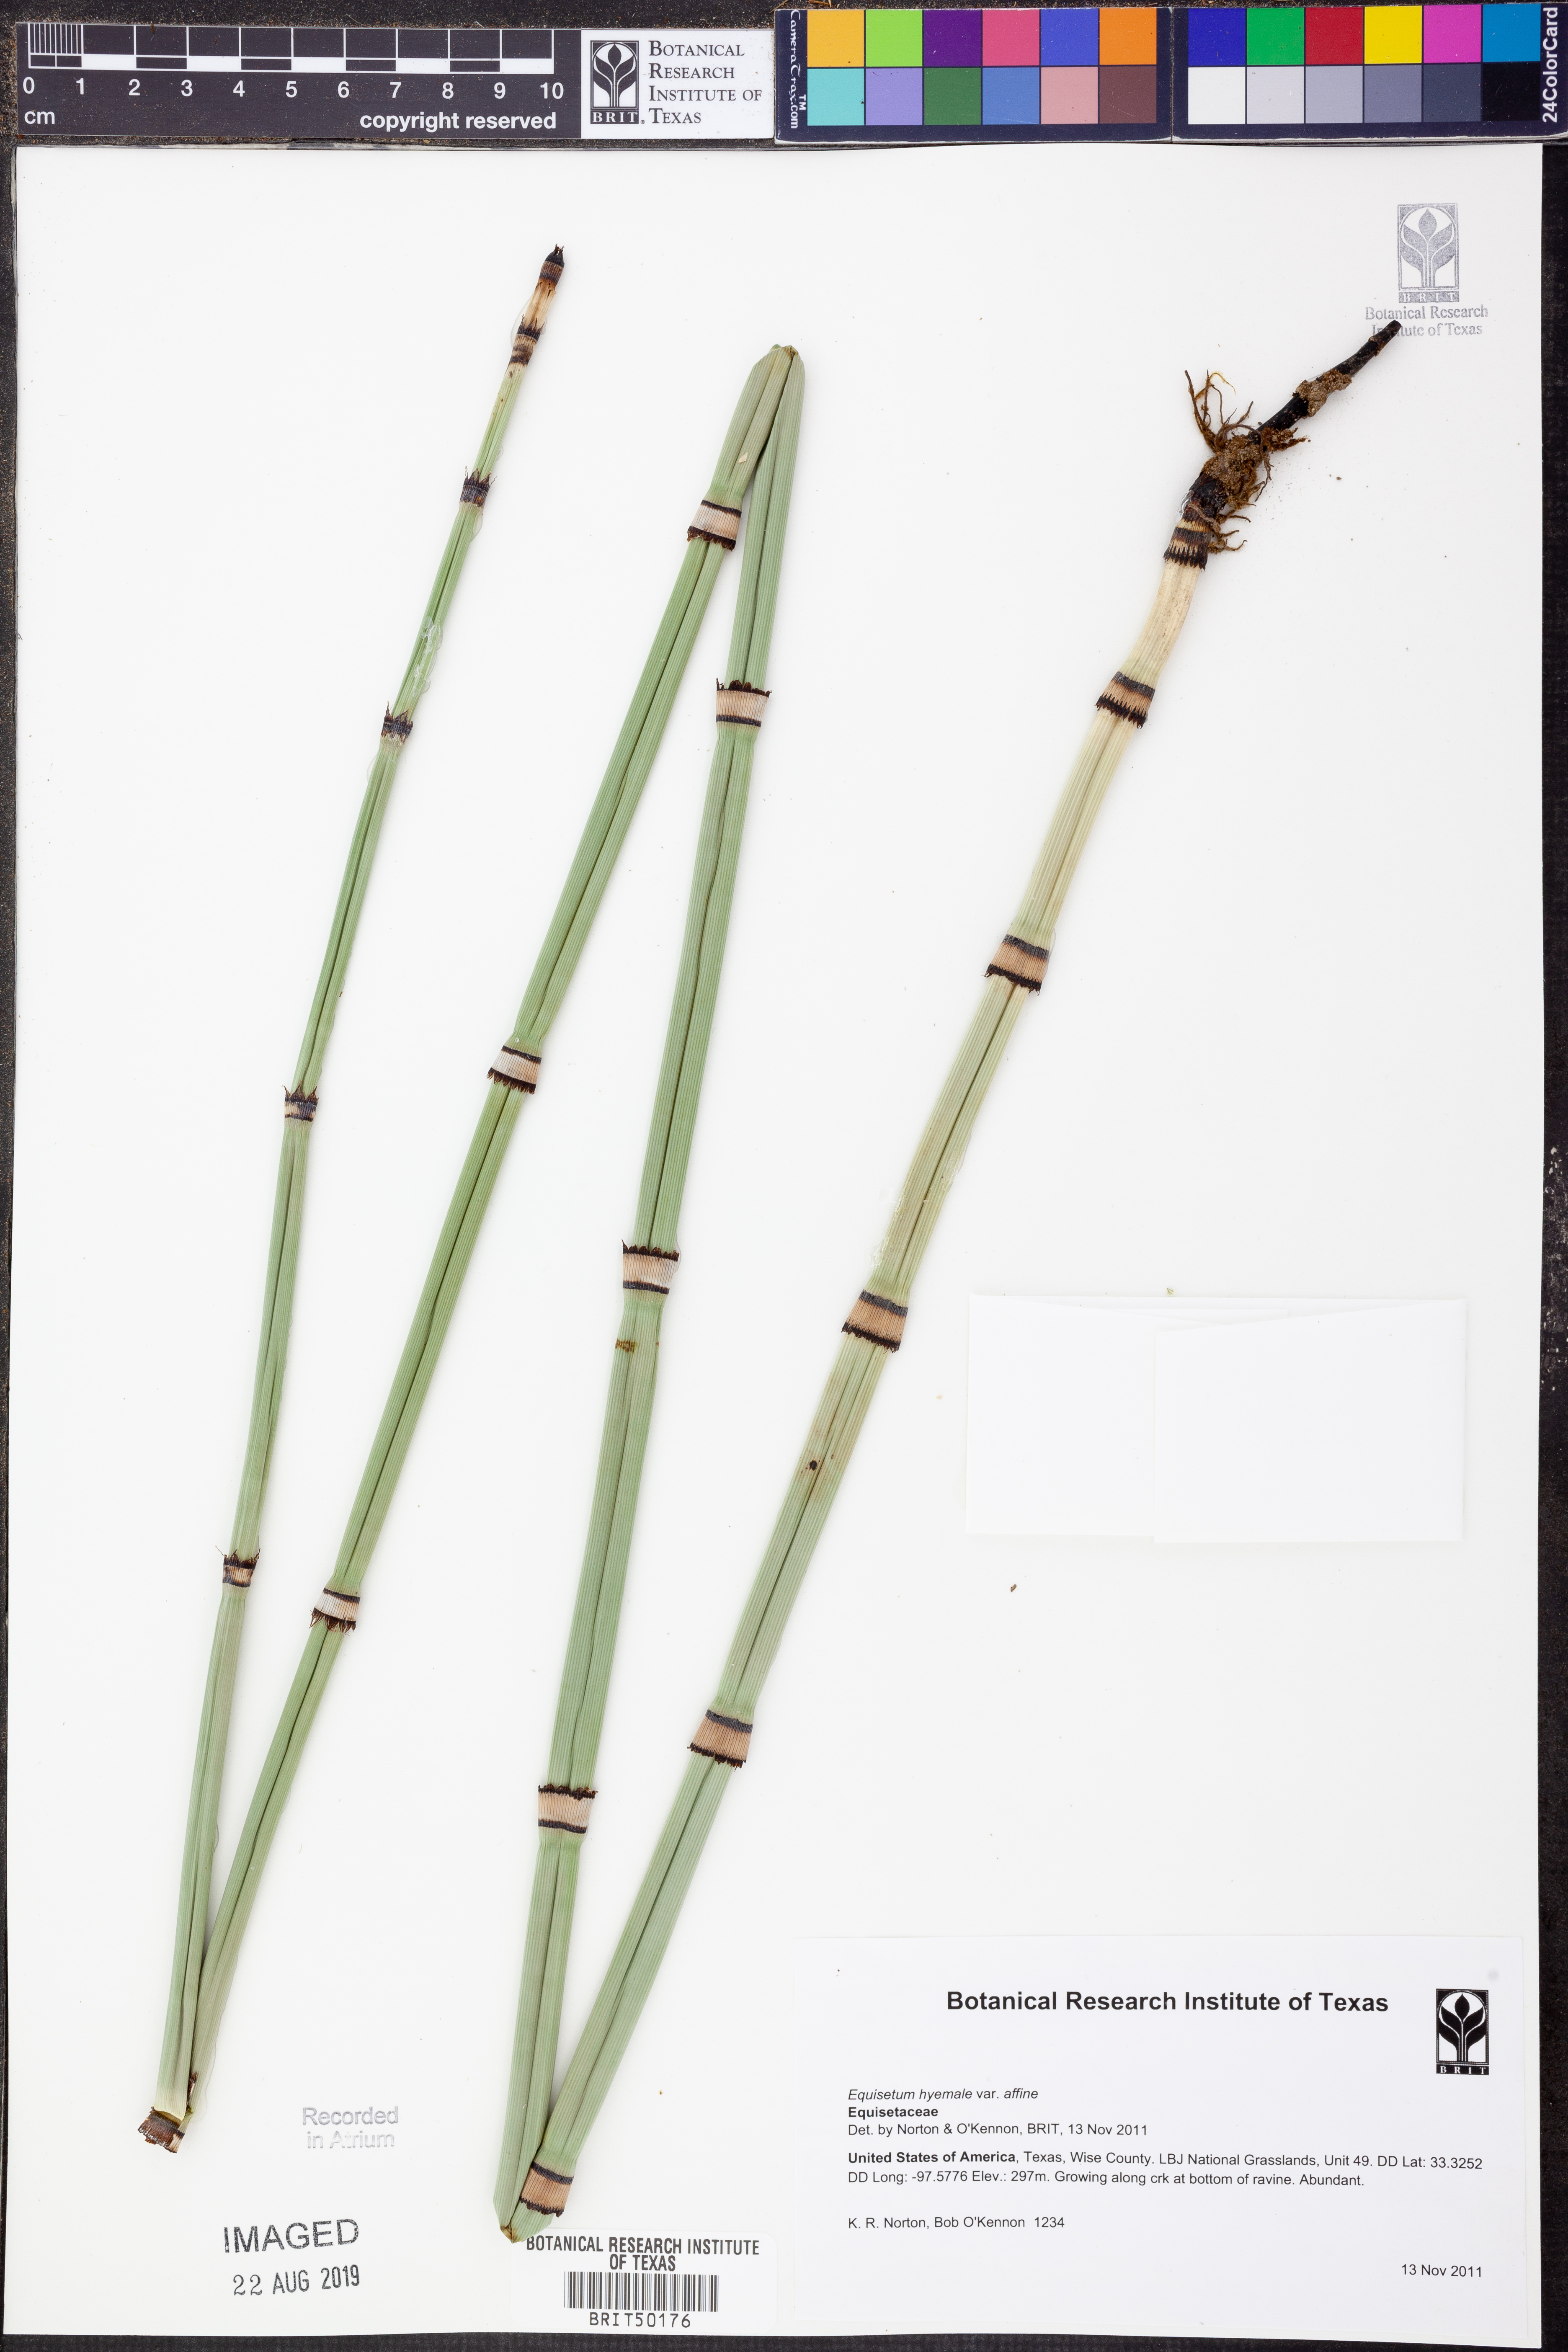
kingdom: Plantae
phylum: Tracheophyta
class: Polypodiopsida
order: Equisetales
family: Equisetaceae
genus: Equisetum
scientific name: Equisetum praealtum
